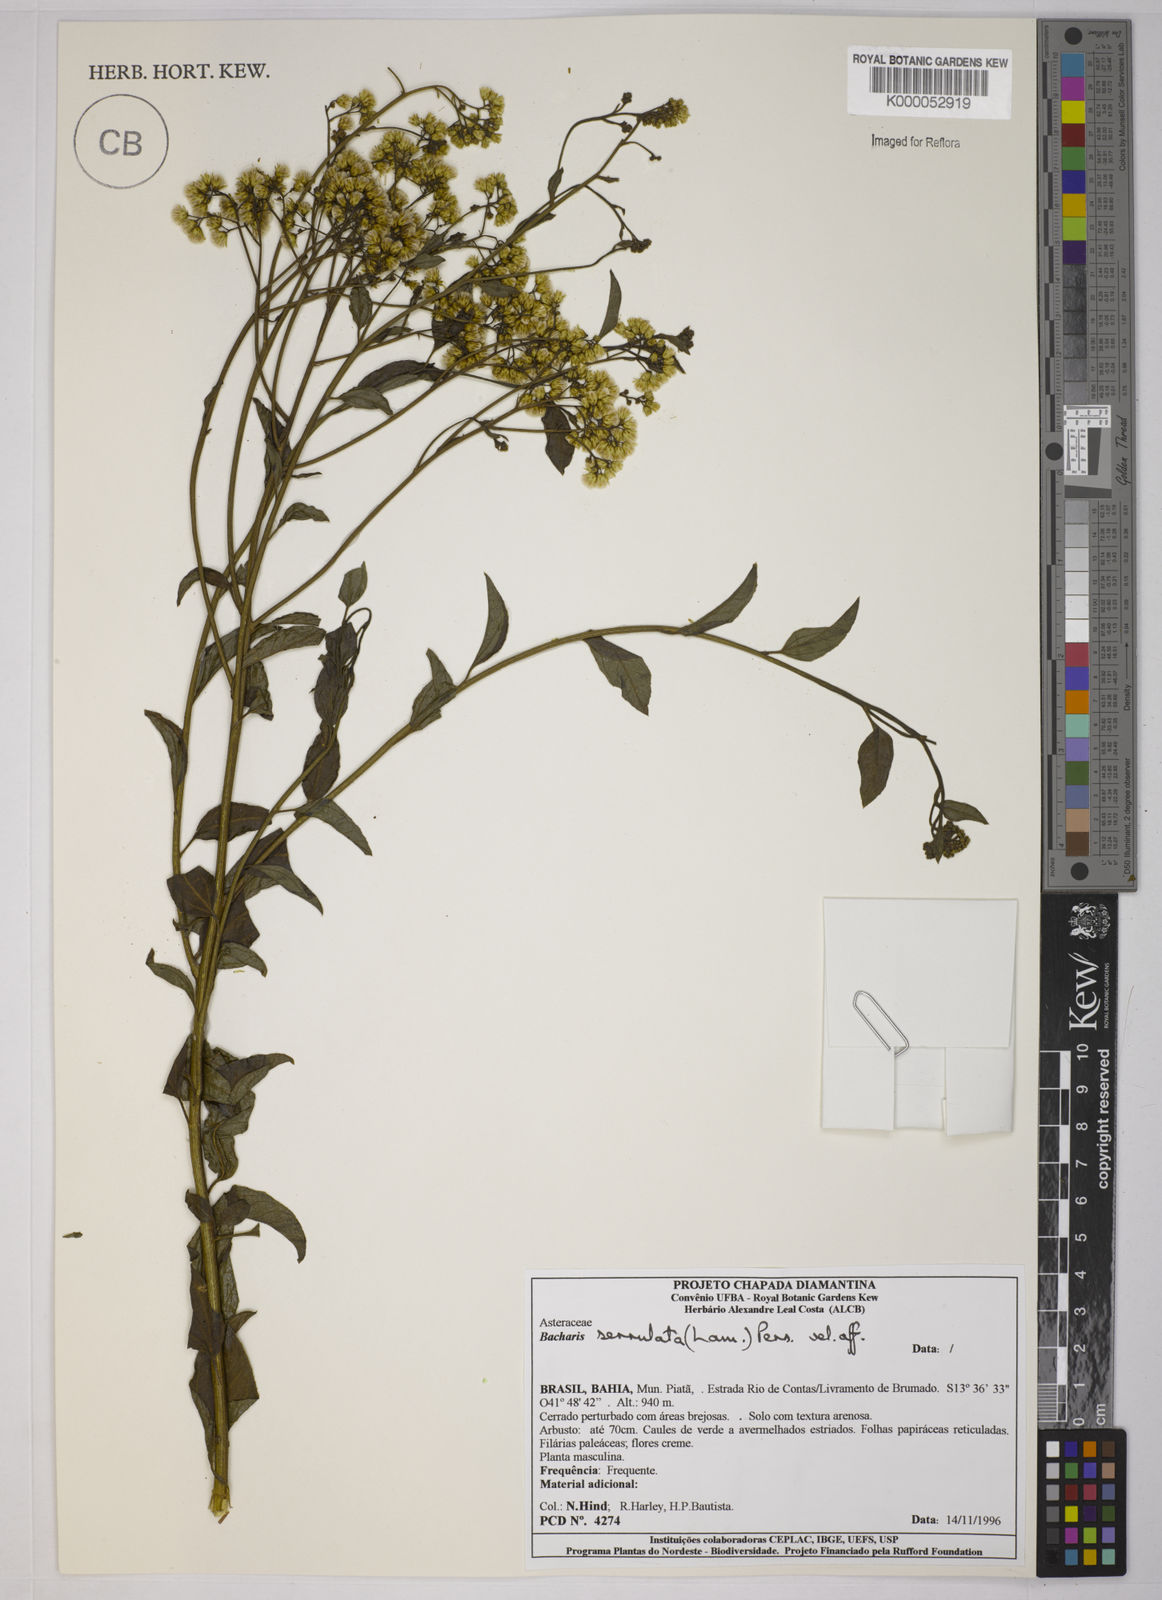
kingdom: Plantae
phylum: Tracheophyta
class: Magnoliopsida
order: Asterales
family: Asteraceae
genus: Baccharis
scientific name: Baccharis serrulata
